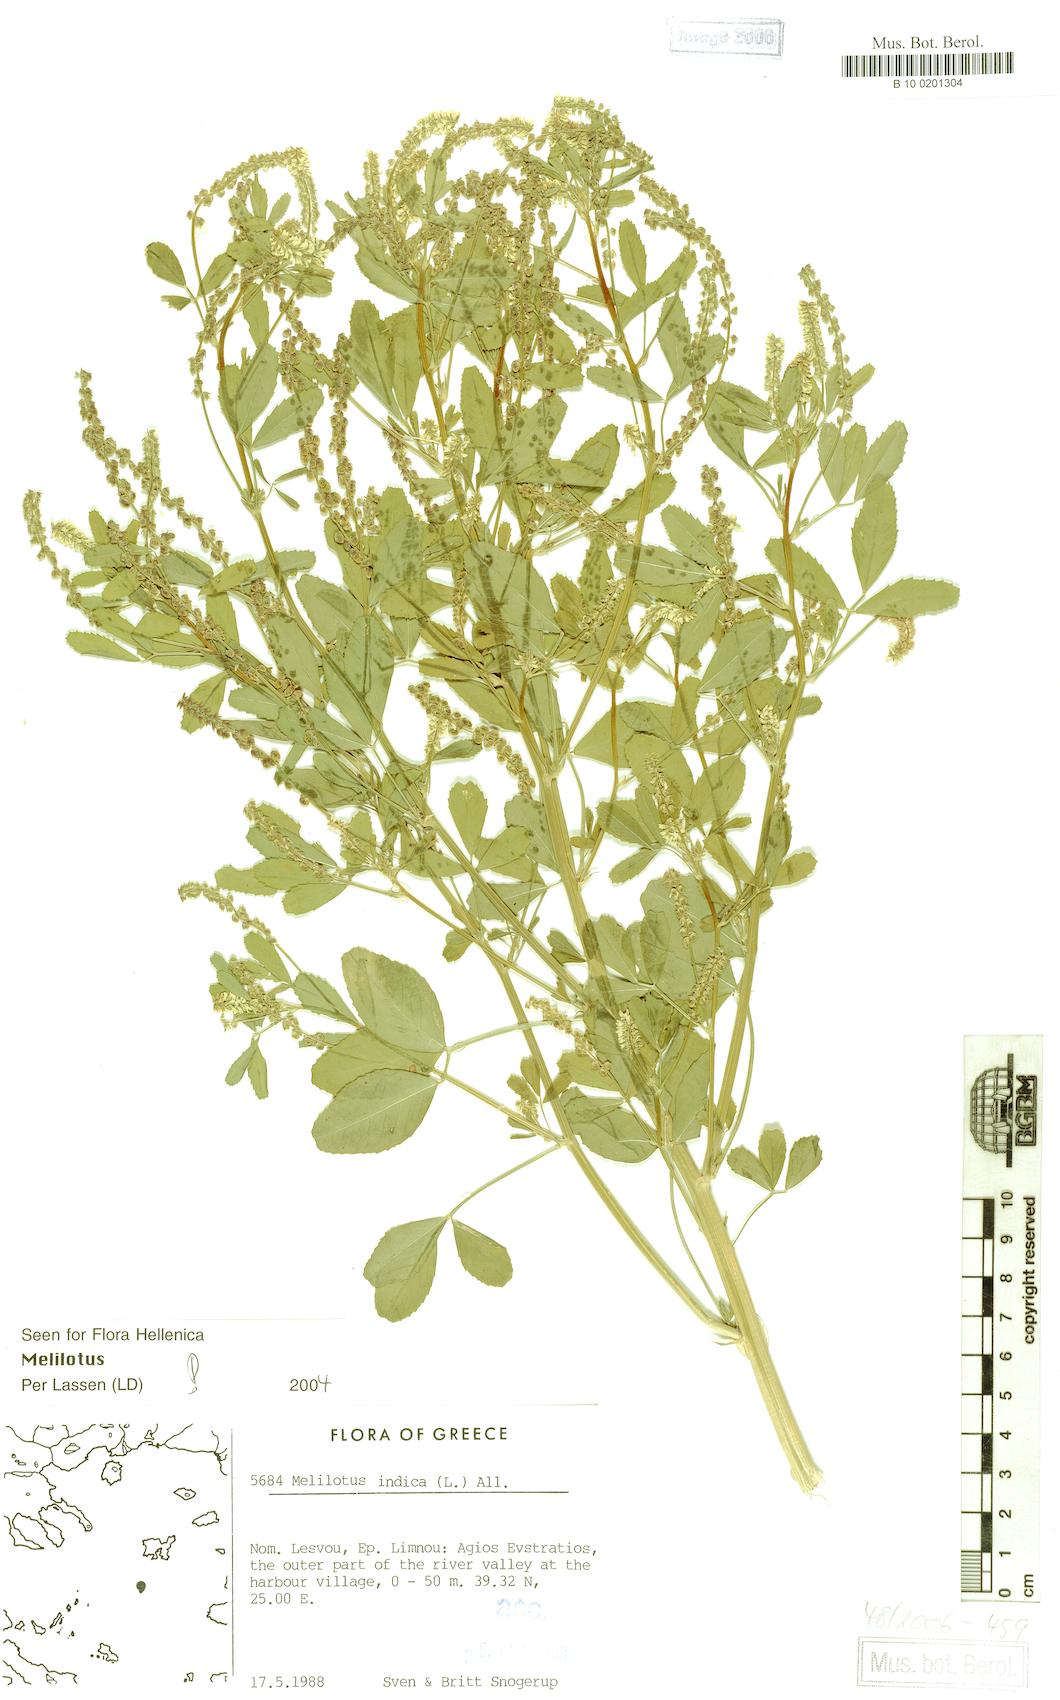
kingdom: Plantae
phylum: Tracheophyta
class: Magnoliopsida
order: Fabales
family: Fabaceae
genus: Melilotus
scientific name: Melilotus indicus
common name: Small melilot
